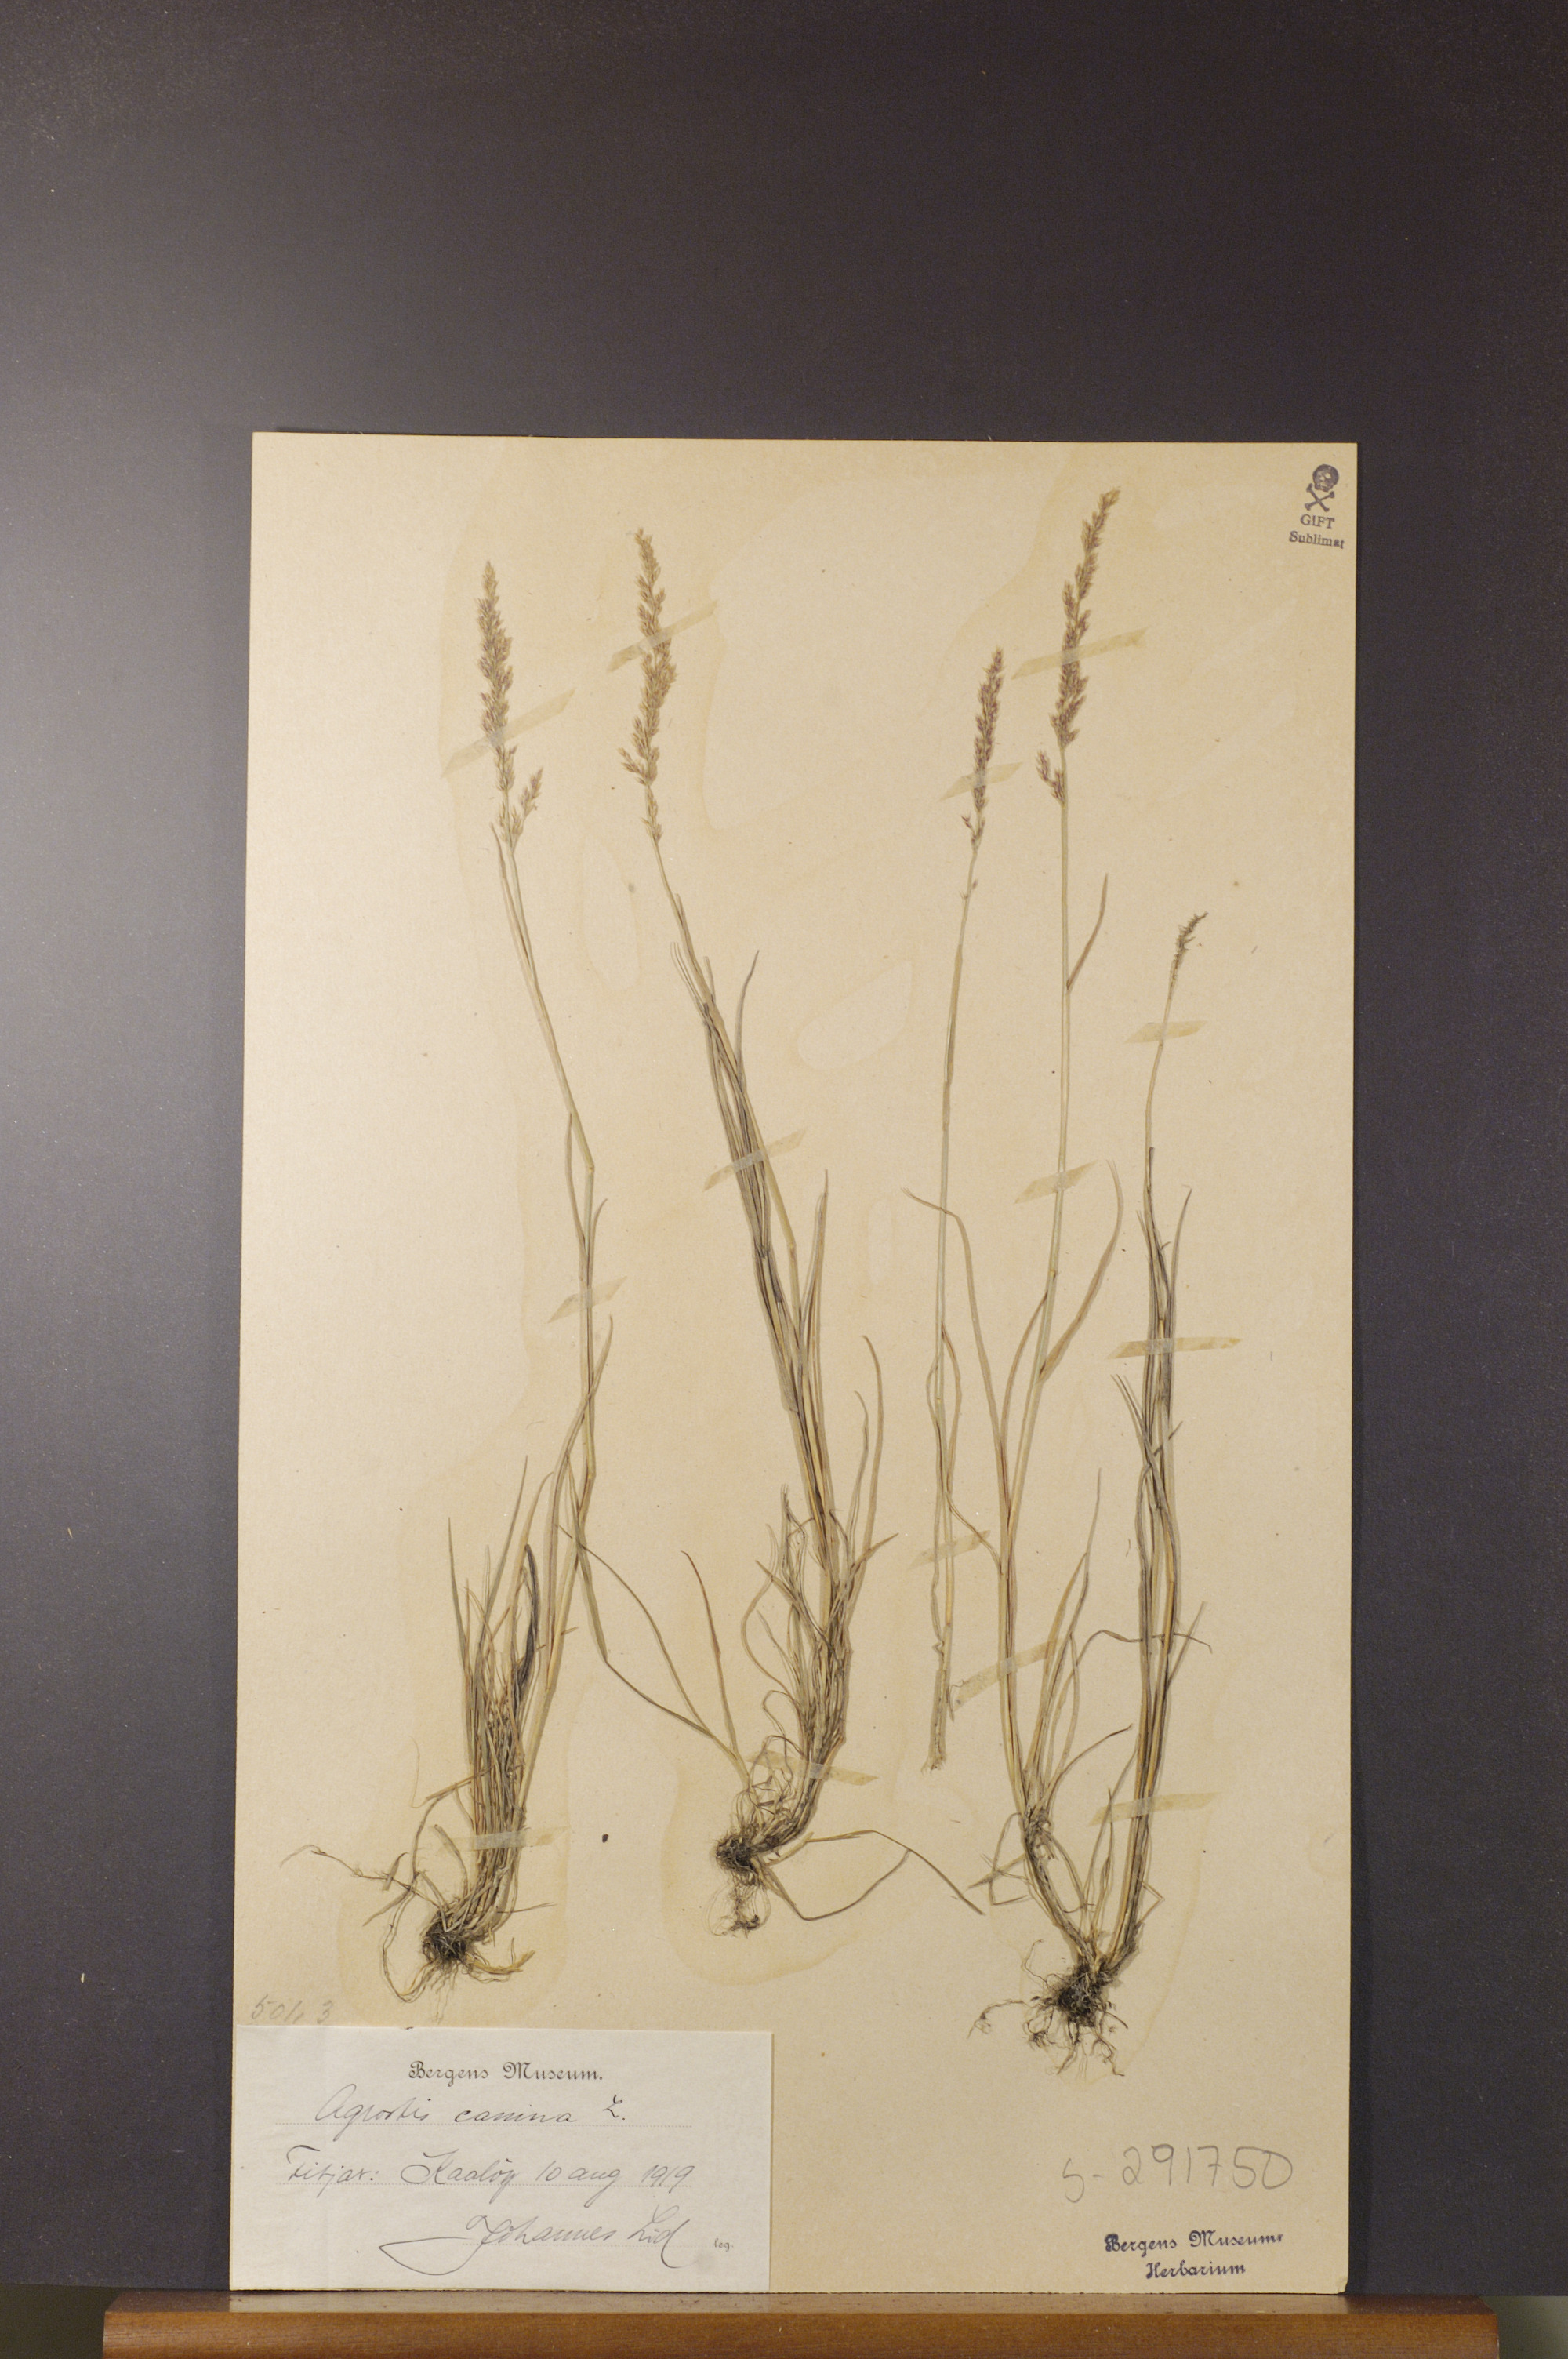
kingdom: Plantae
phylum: Tracheophyta
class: Liliopsida
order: Poales
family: Poaceae
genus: Agrostis
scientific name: Agrostis canina
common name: Velvet bent
